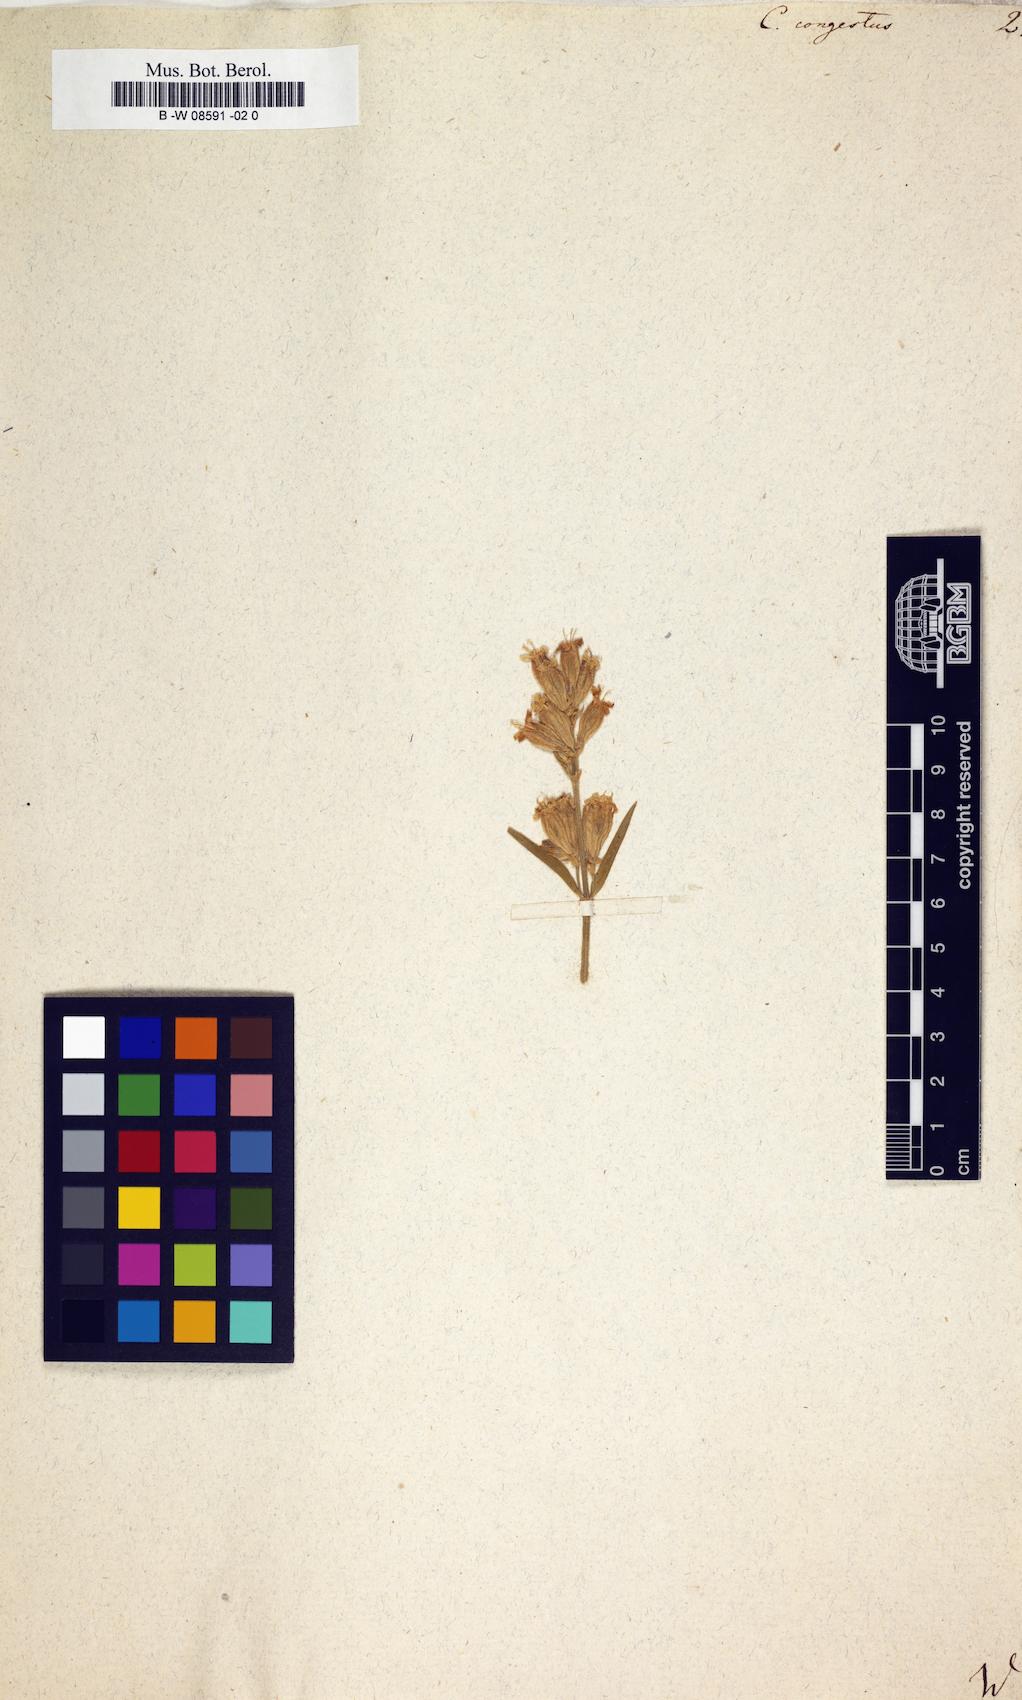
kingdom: Plantae
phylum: Tracheophyta
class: Magnoliopsida
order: Caryophyllales
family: Caryophyllaceae
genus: Silene
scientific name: Silene repens
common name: Pink campion
